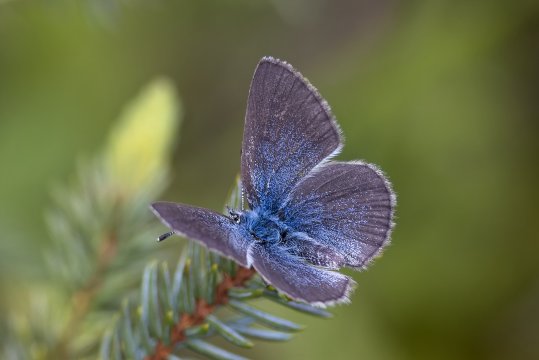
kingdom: Animalia
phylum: Arthropoda
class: Insecta
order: Lepidoptera
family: Lycaenidae
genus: Glaucopsyche
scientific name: Glaucopsyche lygdamus
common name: Silvery Blue
